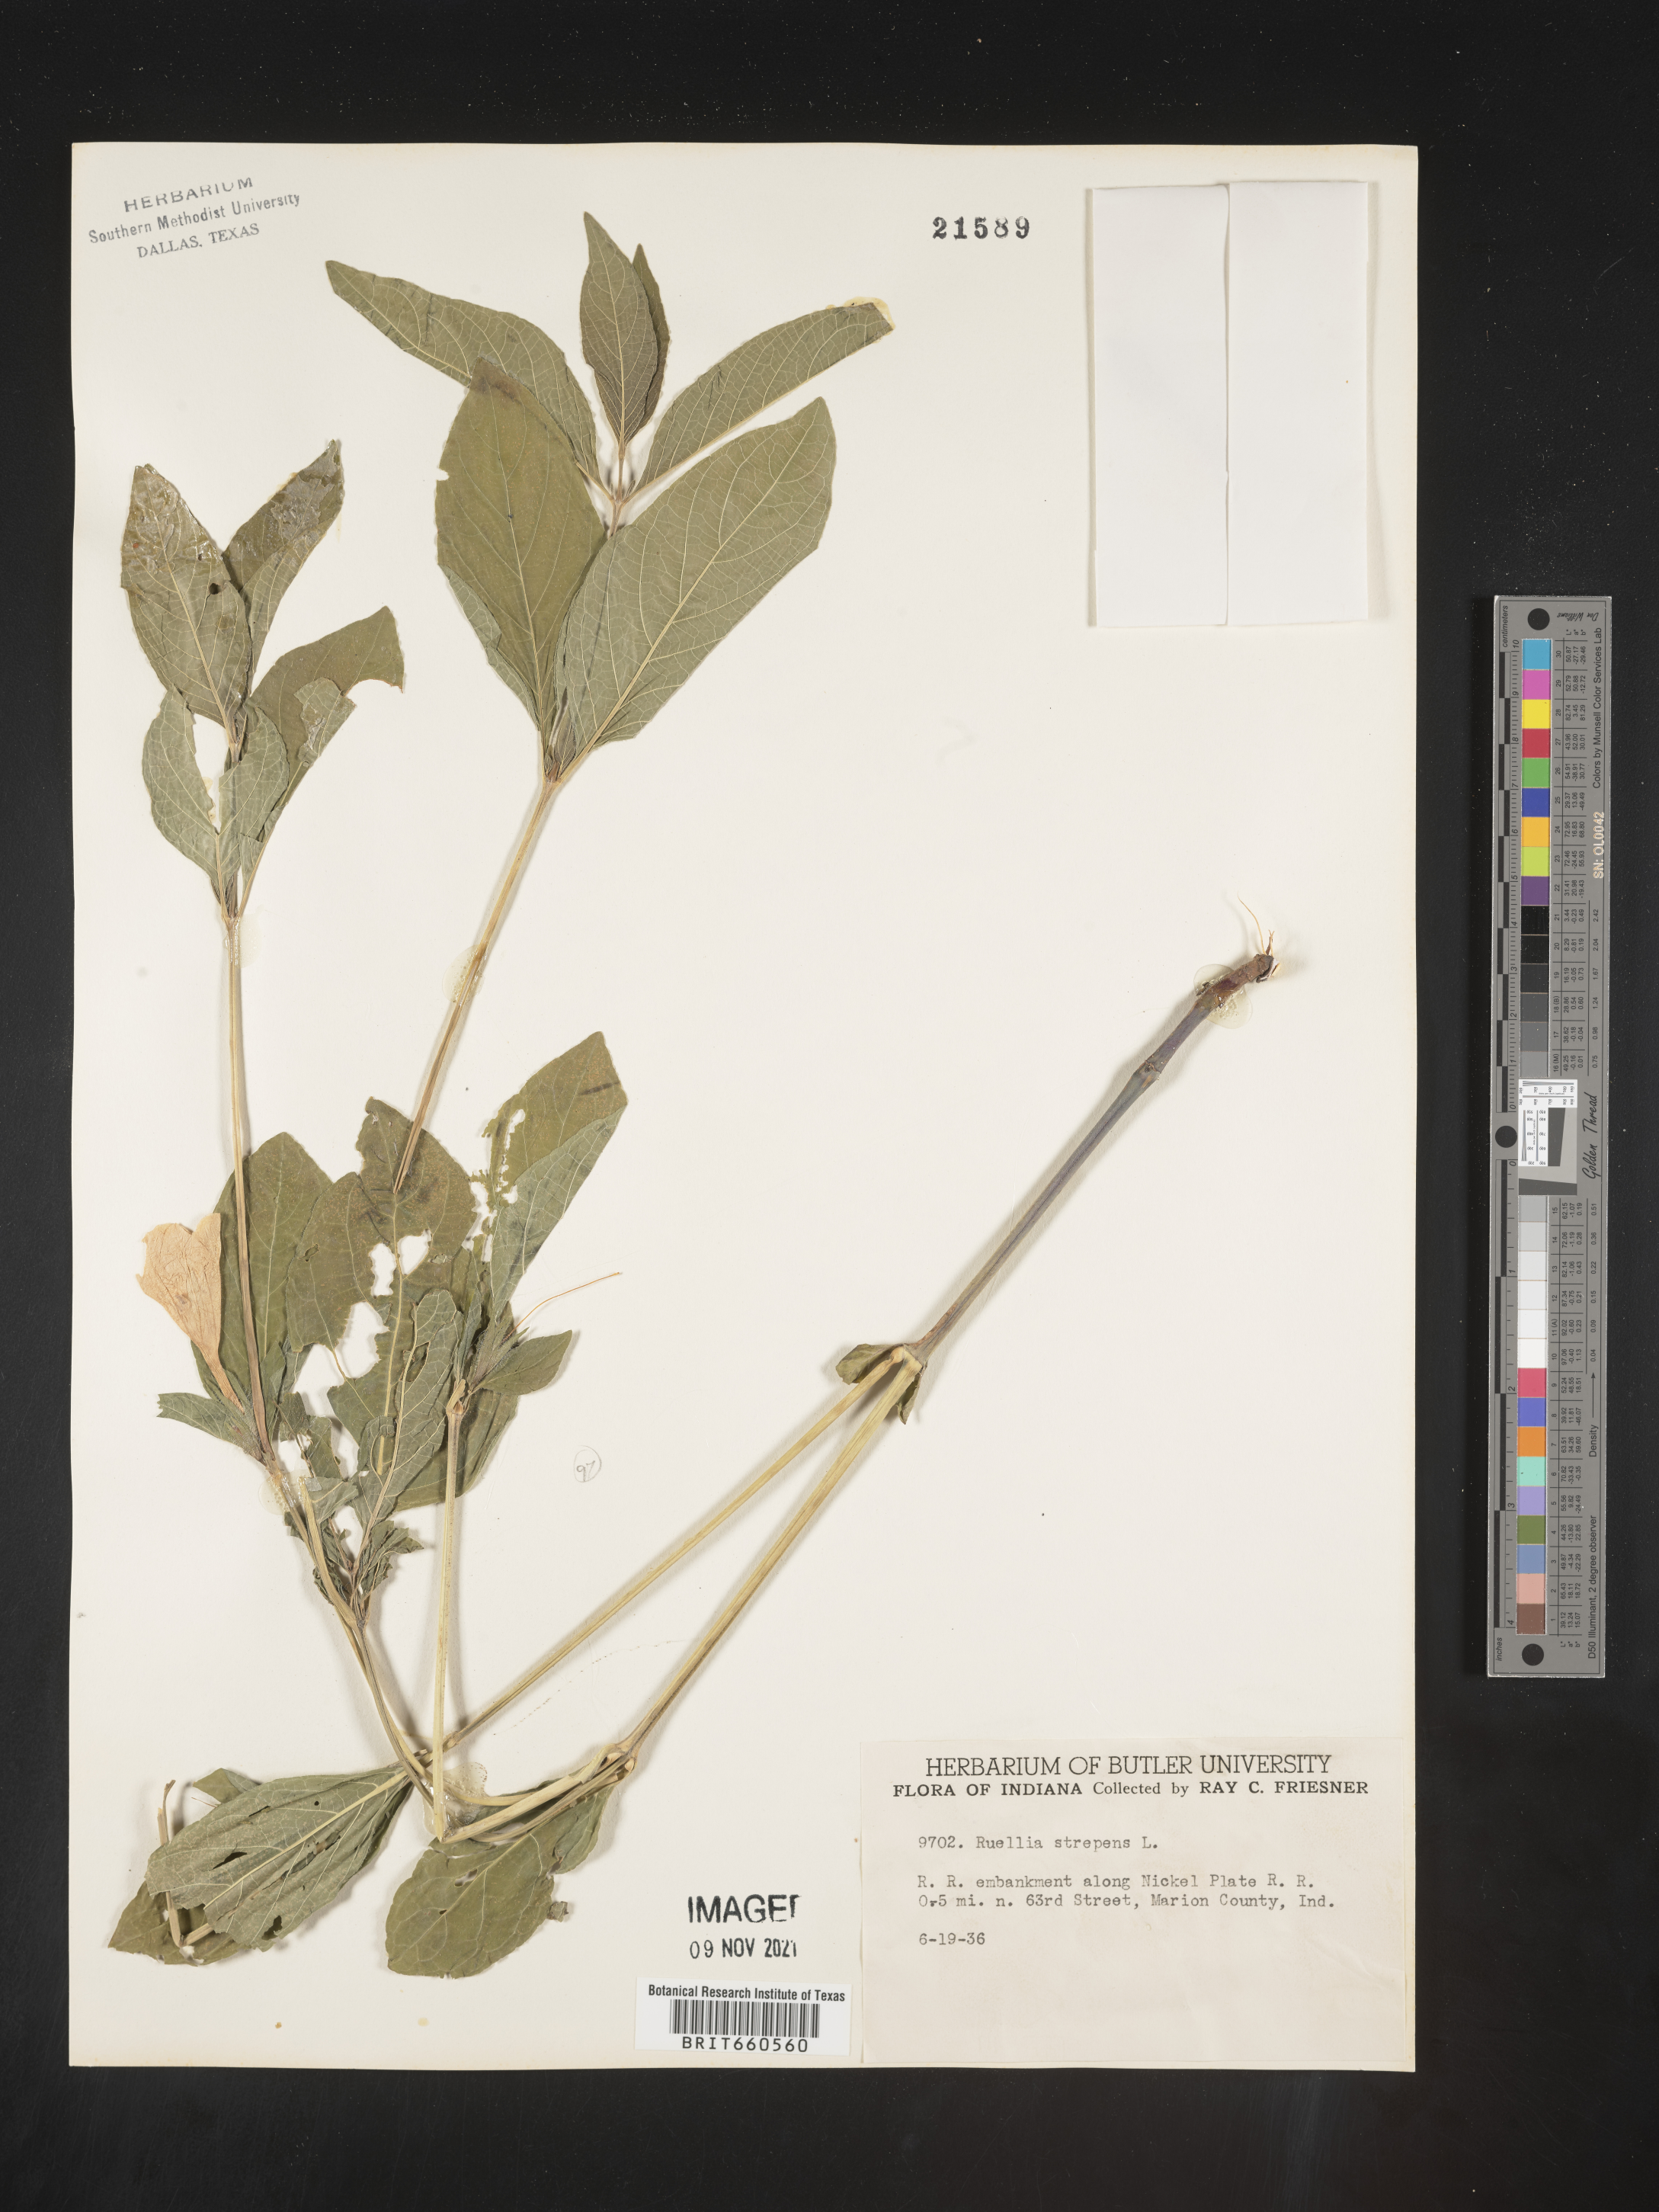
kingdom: Plantae
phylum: Tracheophyta
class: Magnoliopsida
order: Lamiales
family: Acanthaceae
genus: Ruellia
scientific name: Ruellia strepens
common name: Limestone wild petunia
